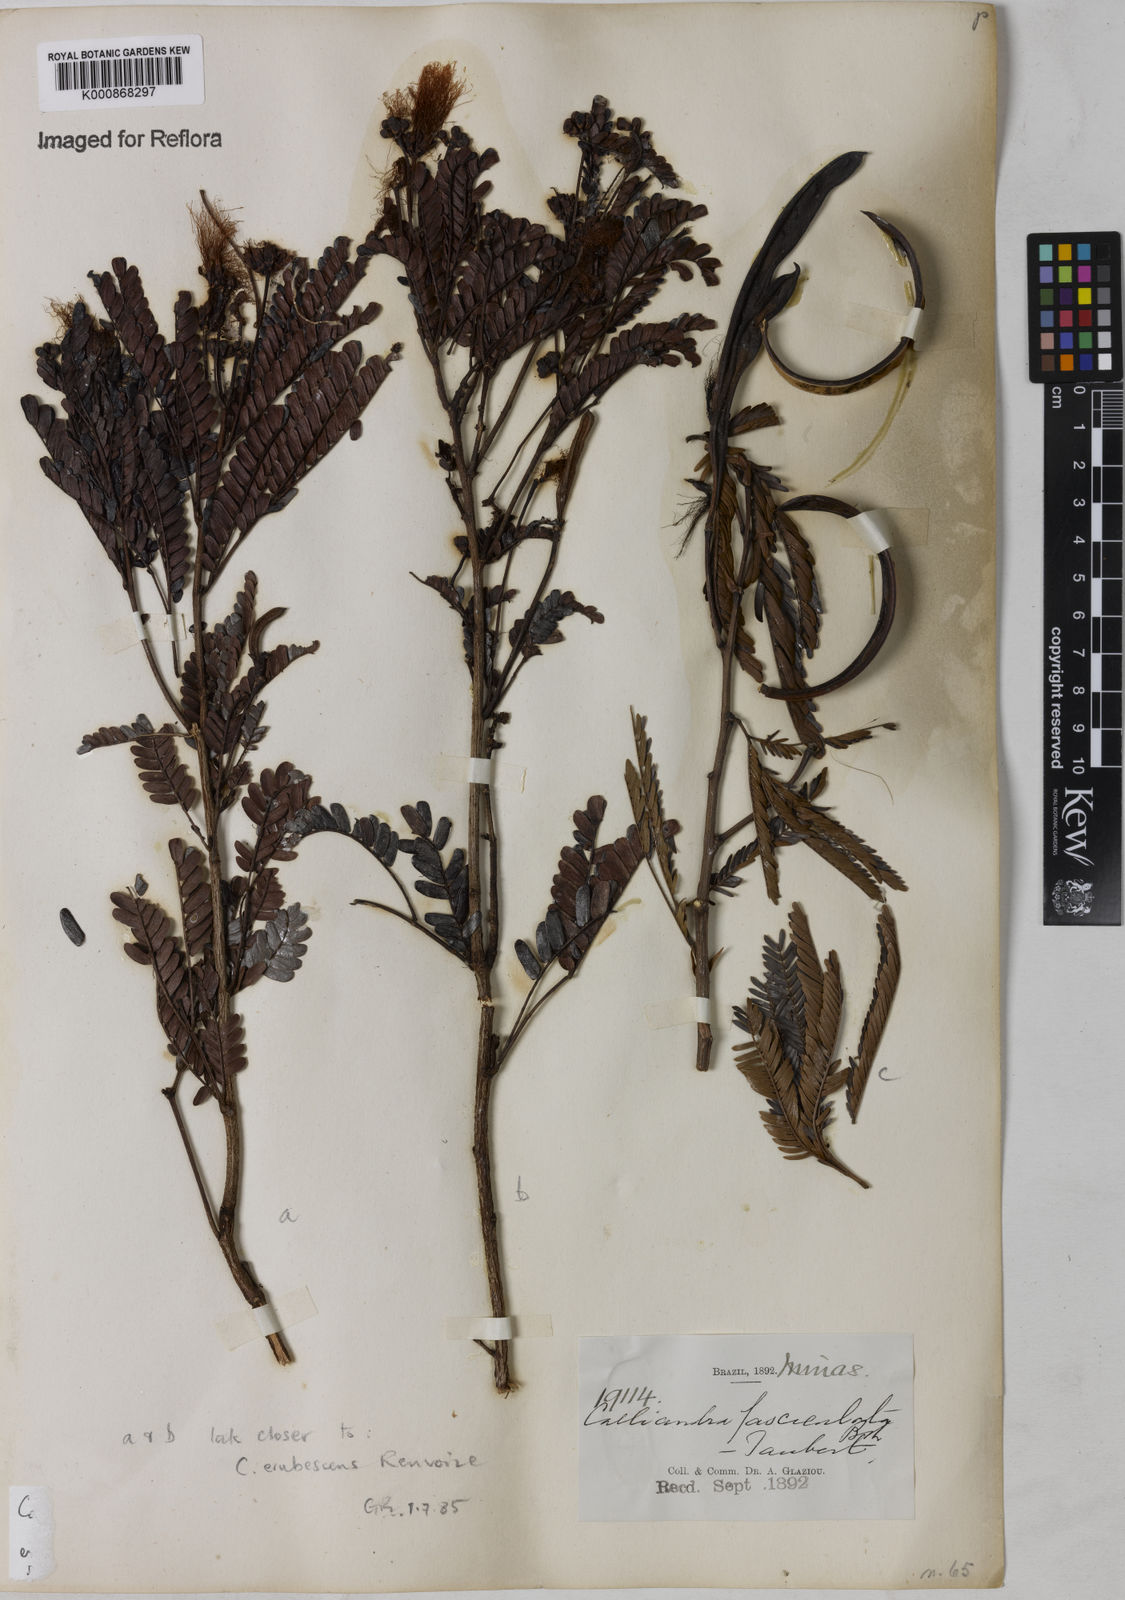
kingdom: Plantae
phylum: Tracheophyta
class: Magnoliopsida
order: Fabales
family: Fabaceae
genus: Calliandra
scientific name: Calliandra fasciculata
